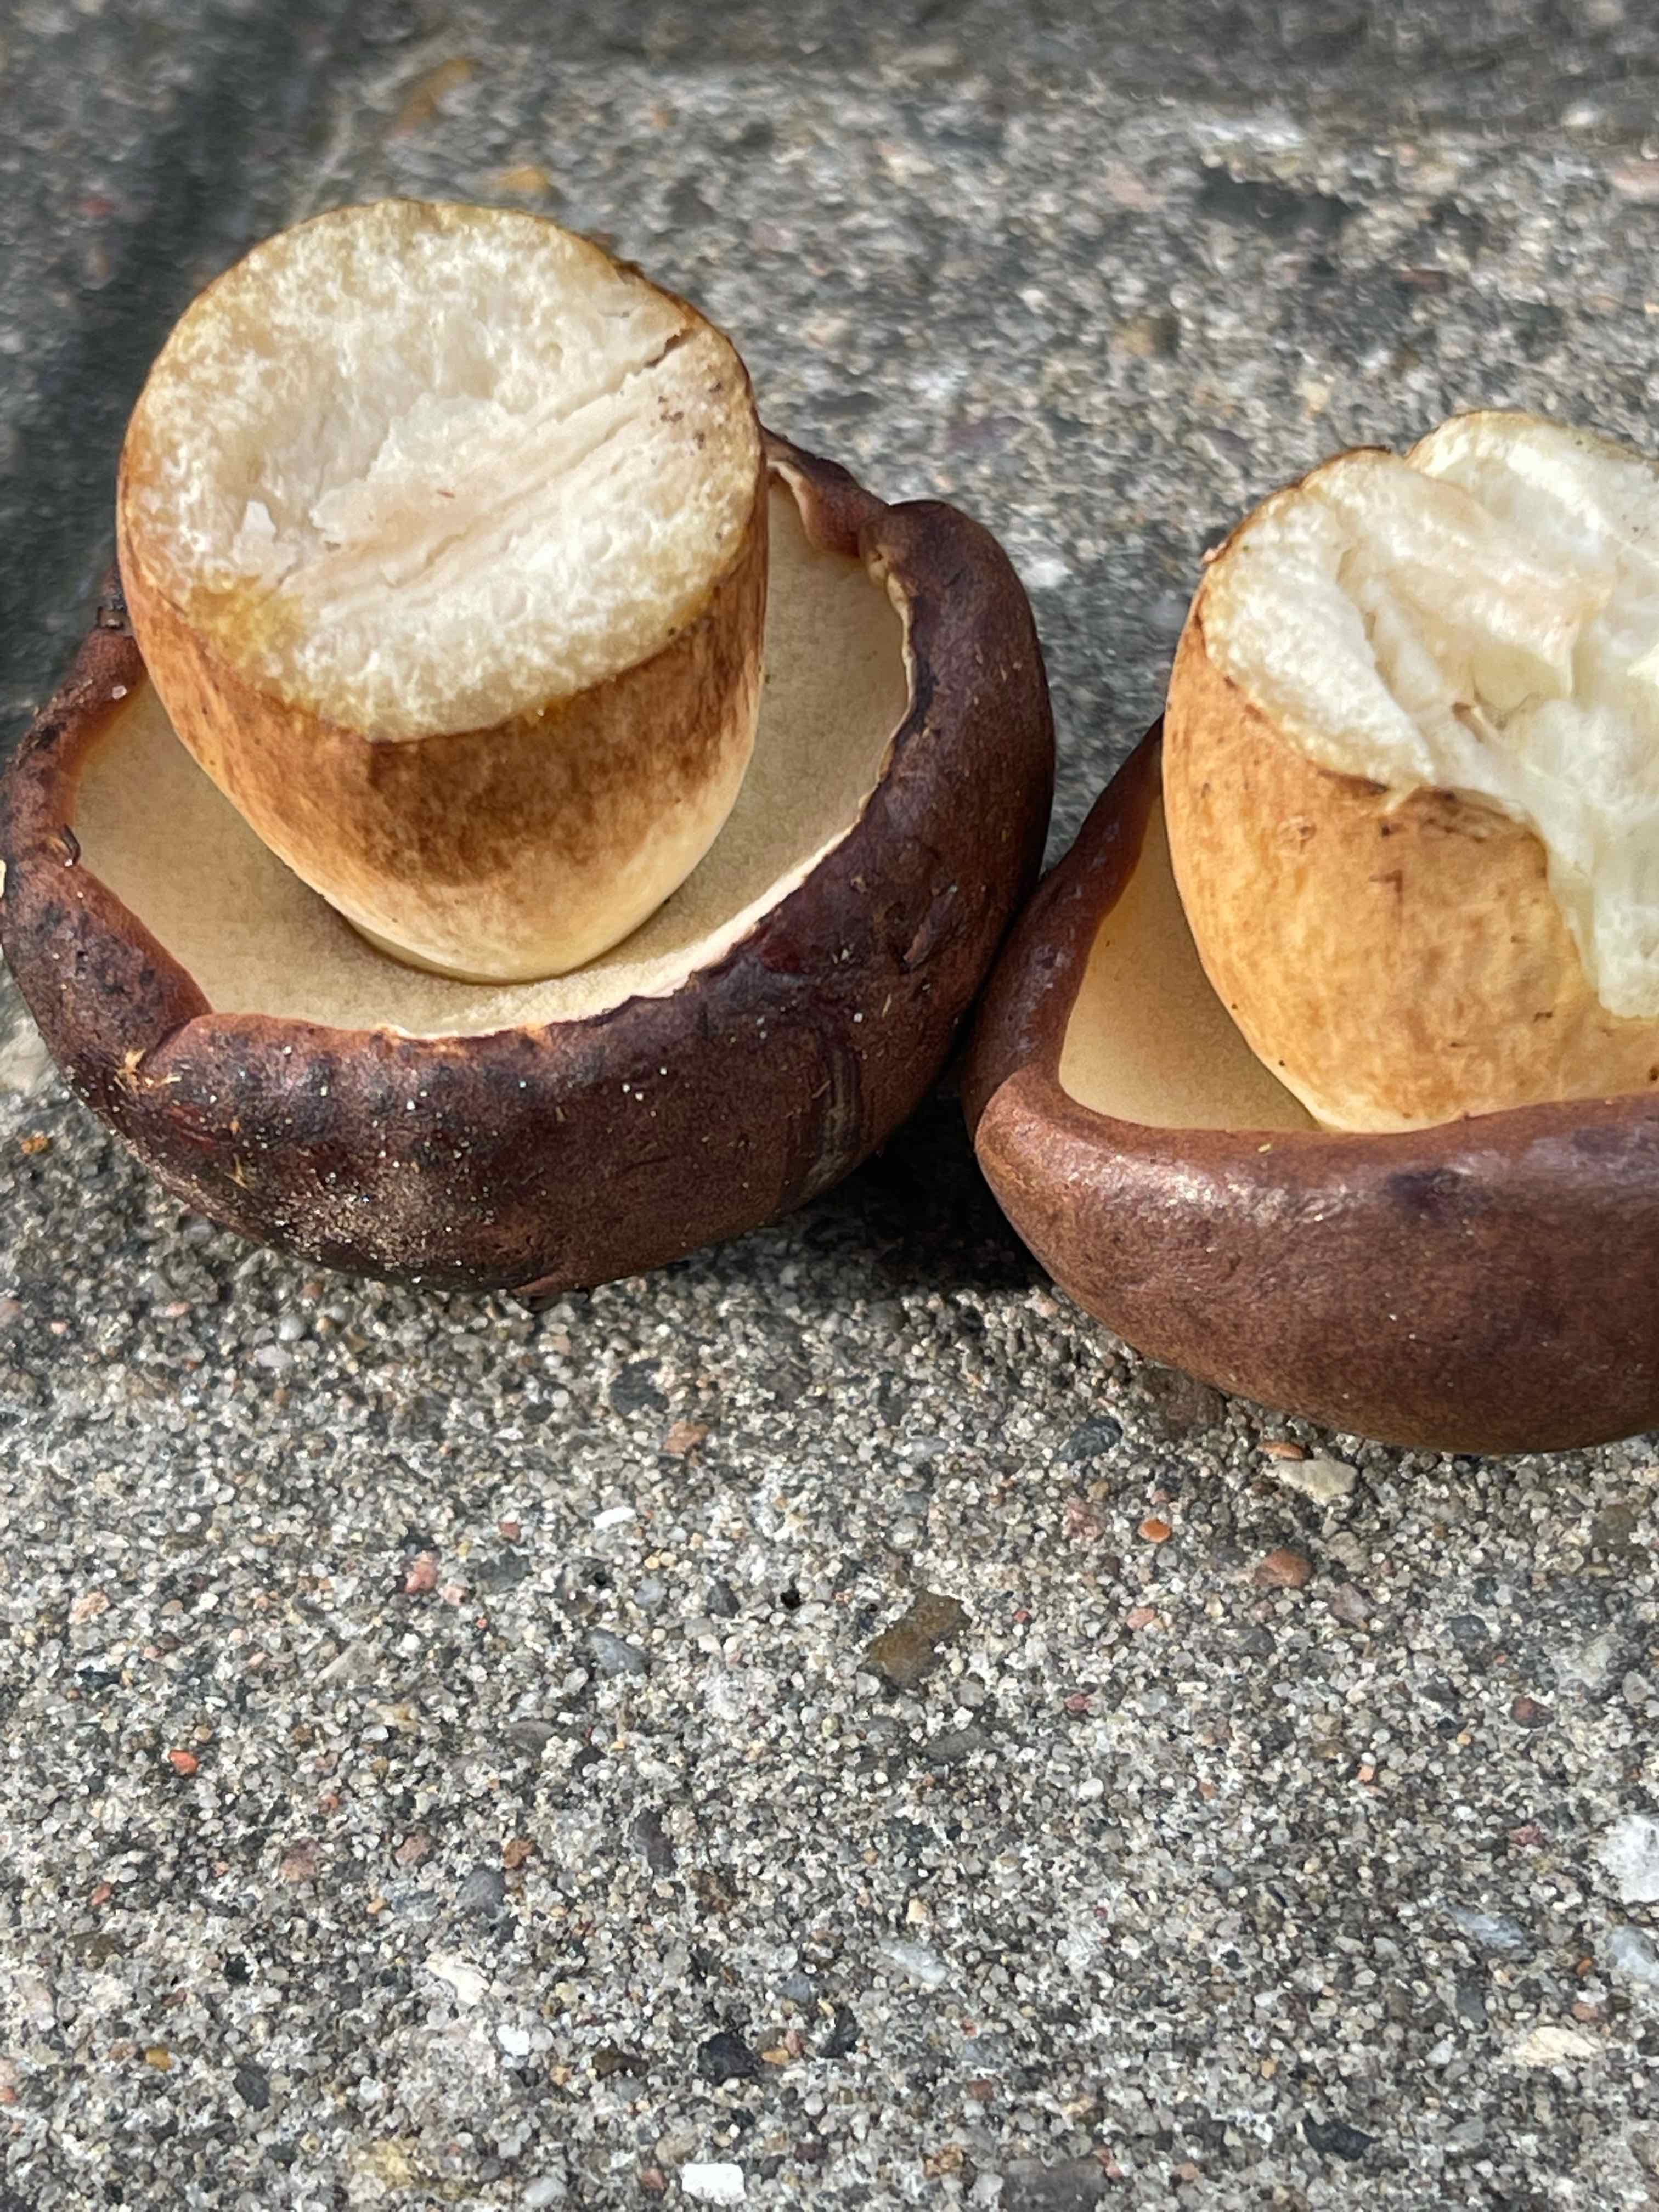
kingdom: Fungi
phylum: Basidiomycota
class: Agaricomycetes
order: Boletales
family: Boletaceae
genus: Imleria
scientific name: Imleria badia
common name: brunstokket rørhat
